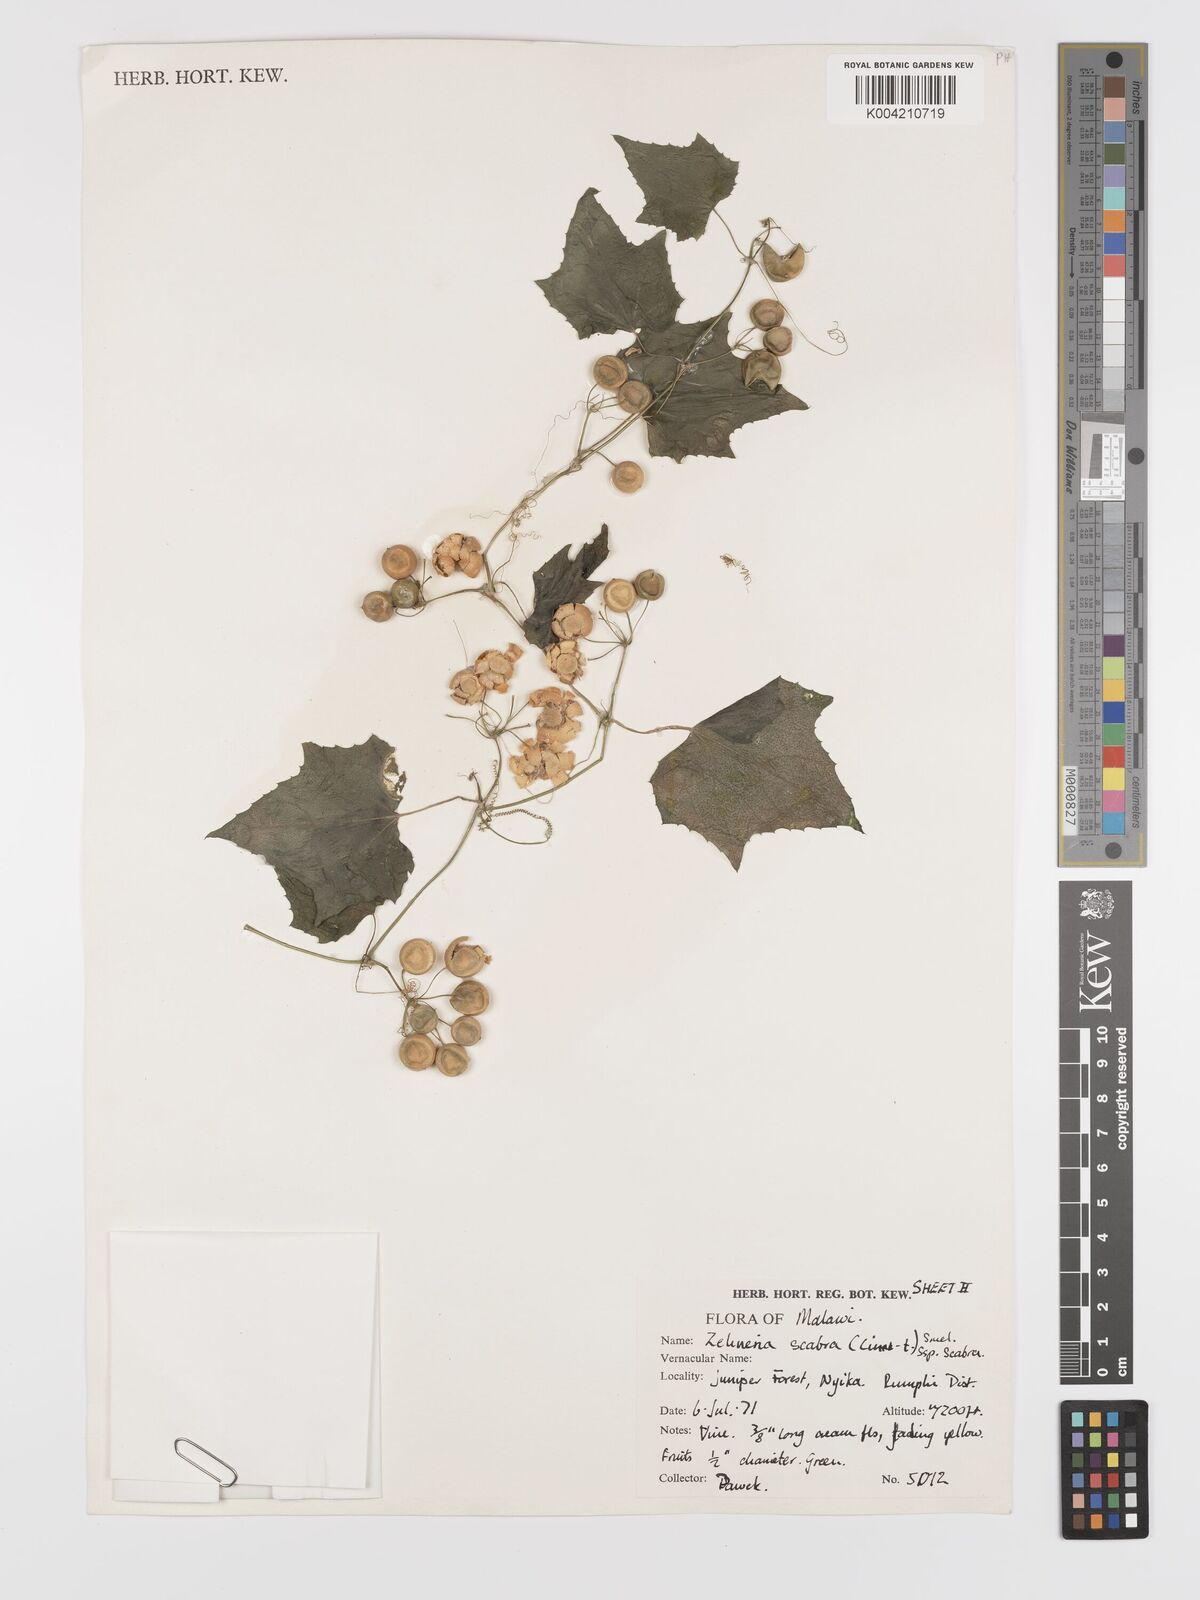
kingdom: Plantae
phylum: Tracheophyta
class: Magnoliopsida
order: Cucurbitales
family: Cucurbitaceae
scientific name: Cucurbitaceae
